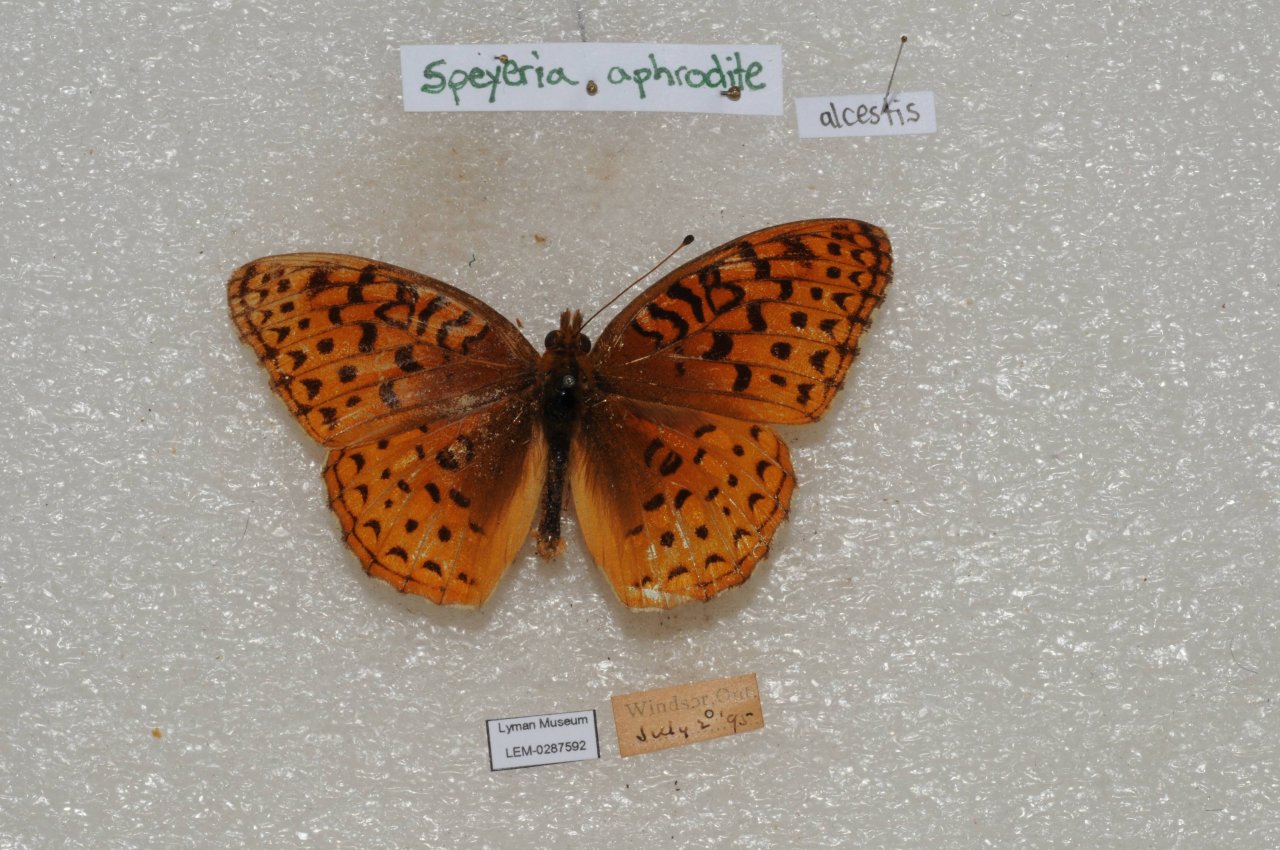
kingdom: Animalia
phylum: Arthropoda
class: Insecta
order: Lepidoptera
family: Nymphalidae
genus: Speyeria
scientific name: Speyeria aphrodite
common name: Aphrodite Fritillary
